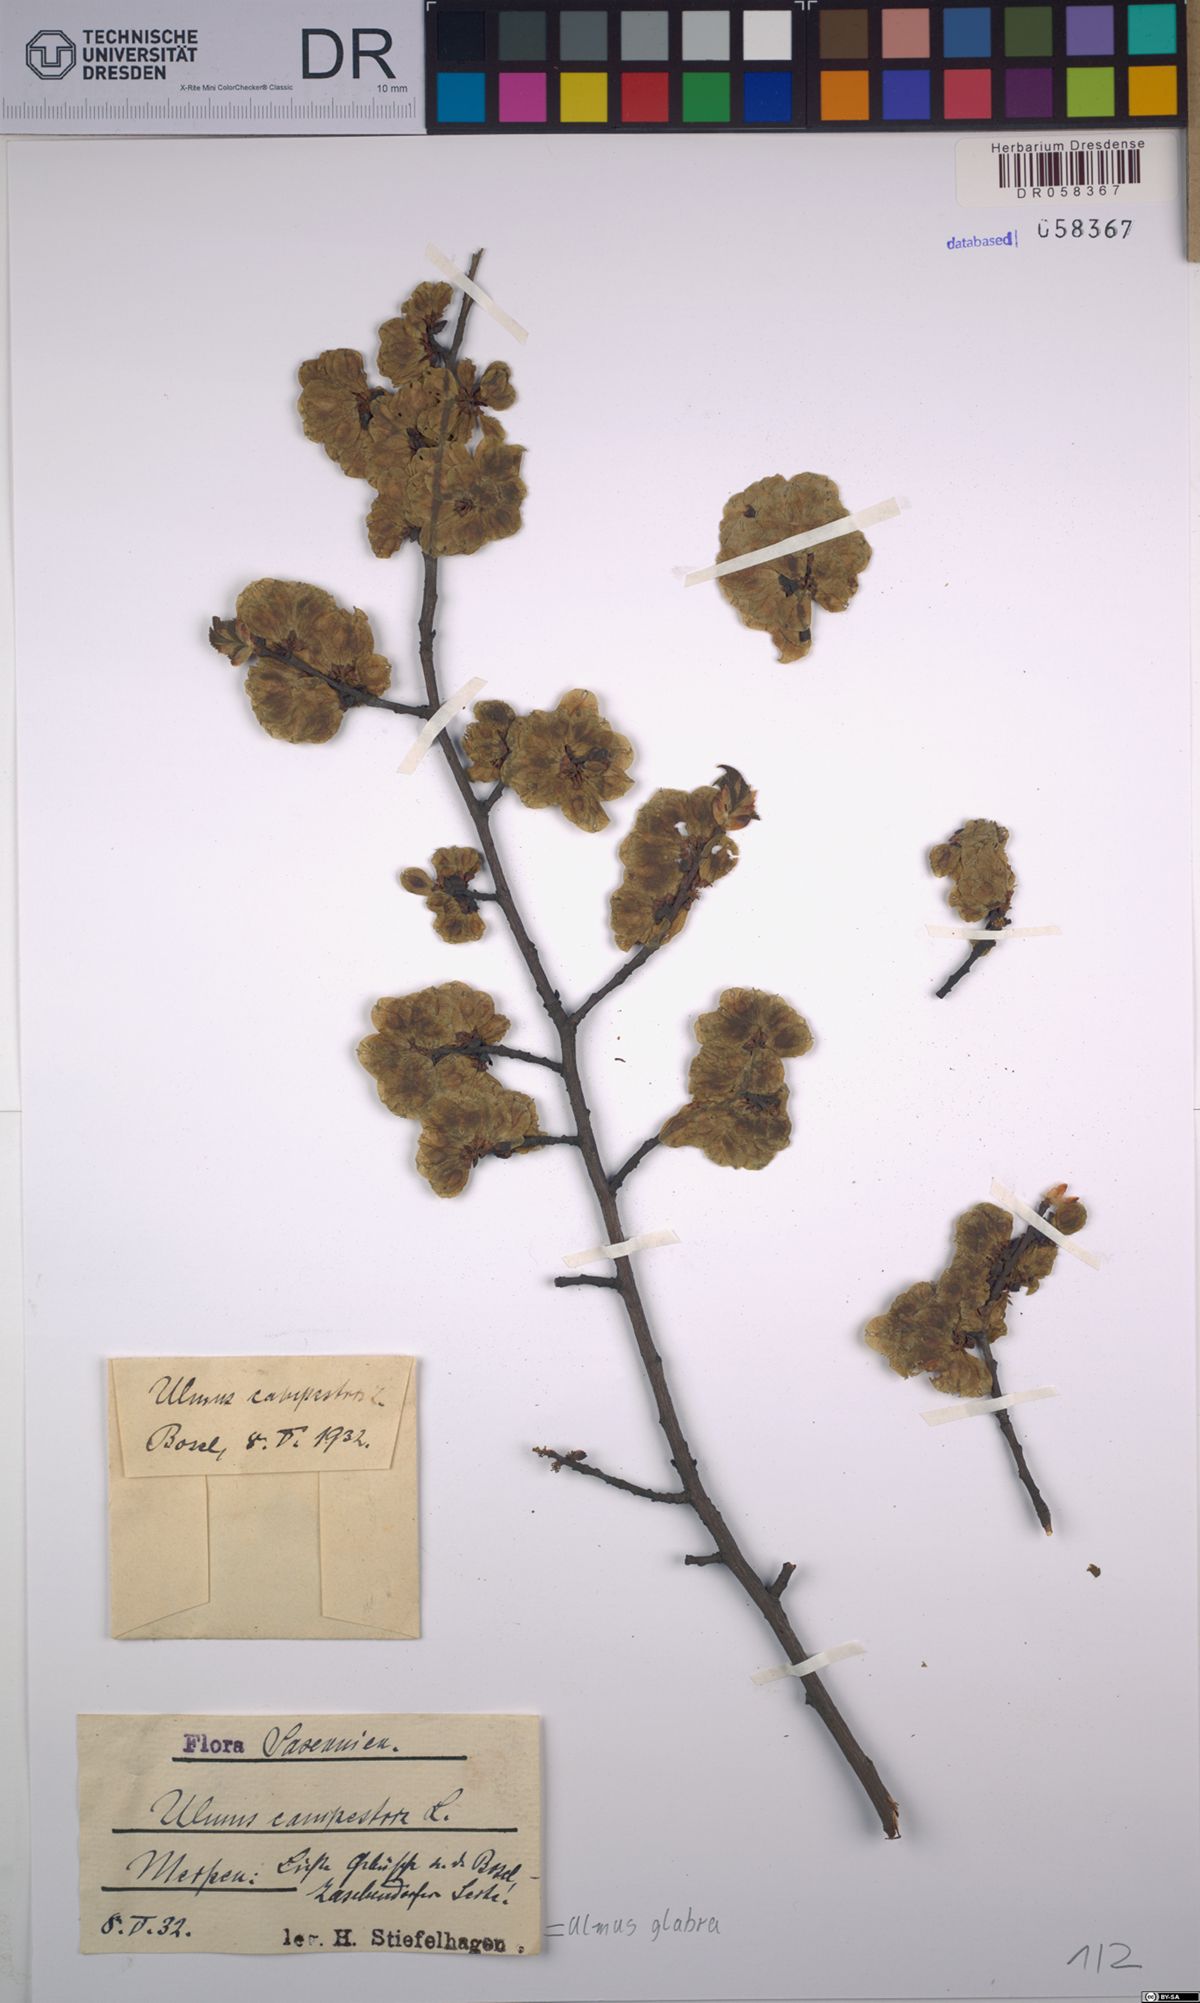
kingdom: Plantae
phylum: Tracheophyta
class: Magnoliopsida
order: Rosales
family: Ulmaceae
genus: Ulmus
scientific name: Ulmus glabra
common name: Wych elm
